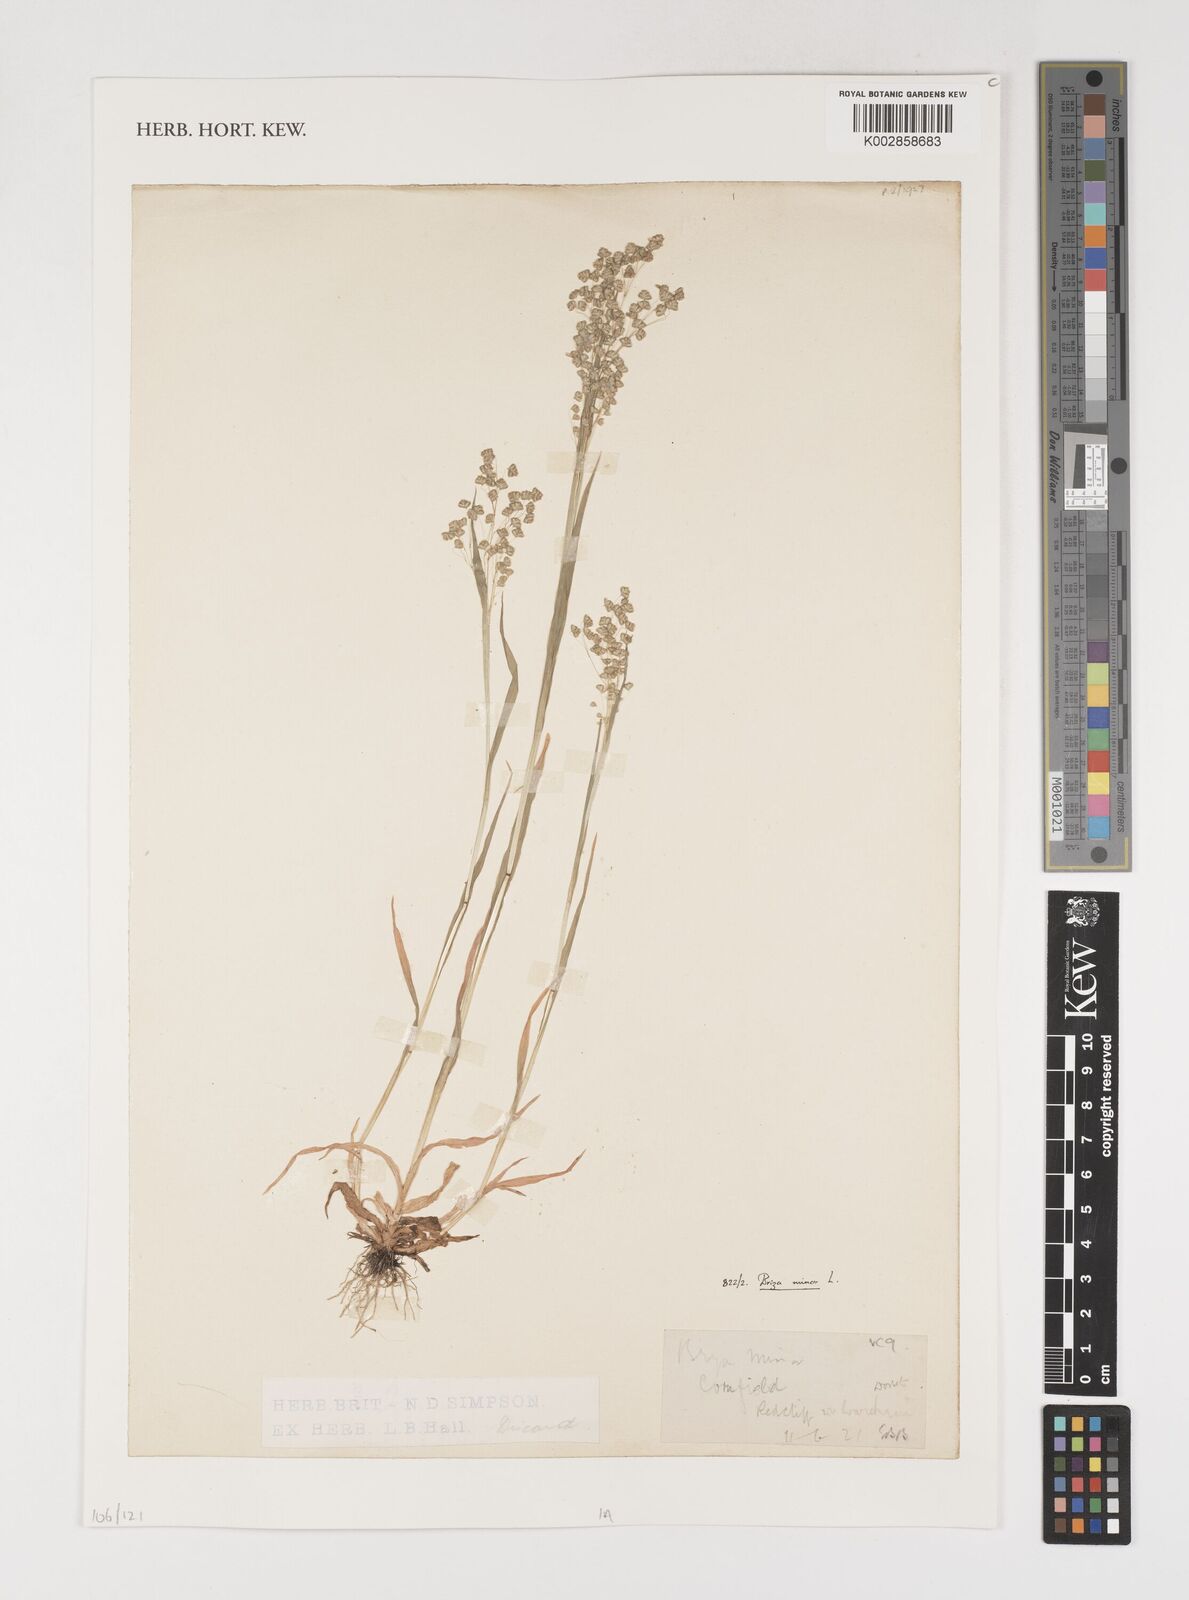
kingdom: Plantae
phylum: Tracheophyta
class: Liliopsida
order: Poales
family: Poaceae
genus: Briza
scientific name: Briza minor
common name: Lesser quaking-grass
